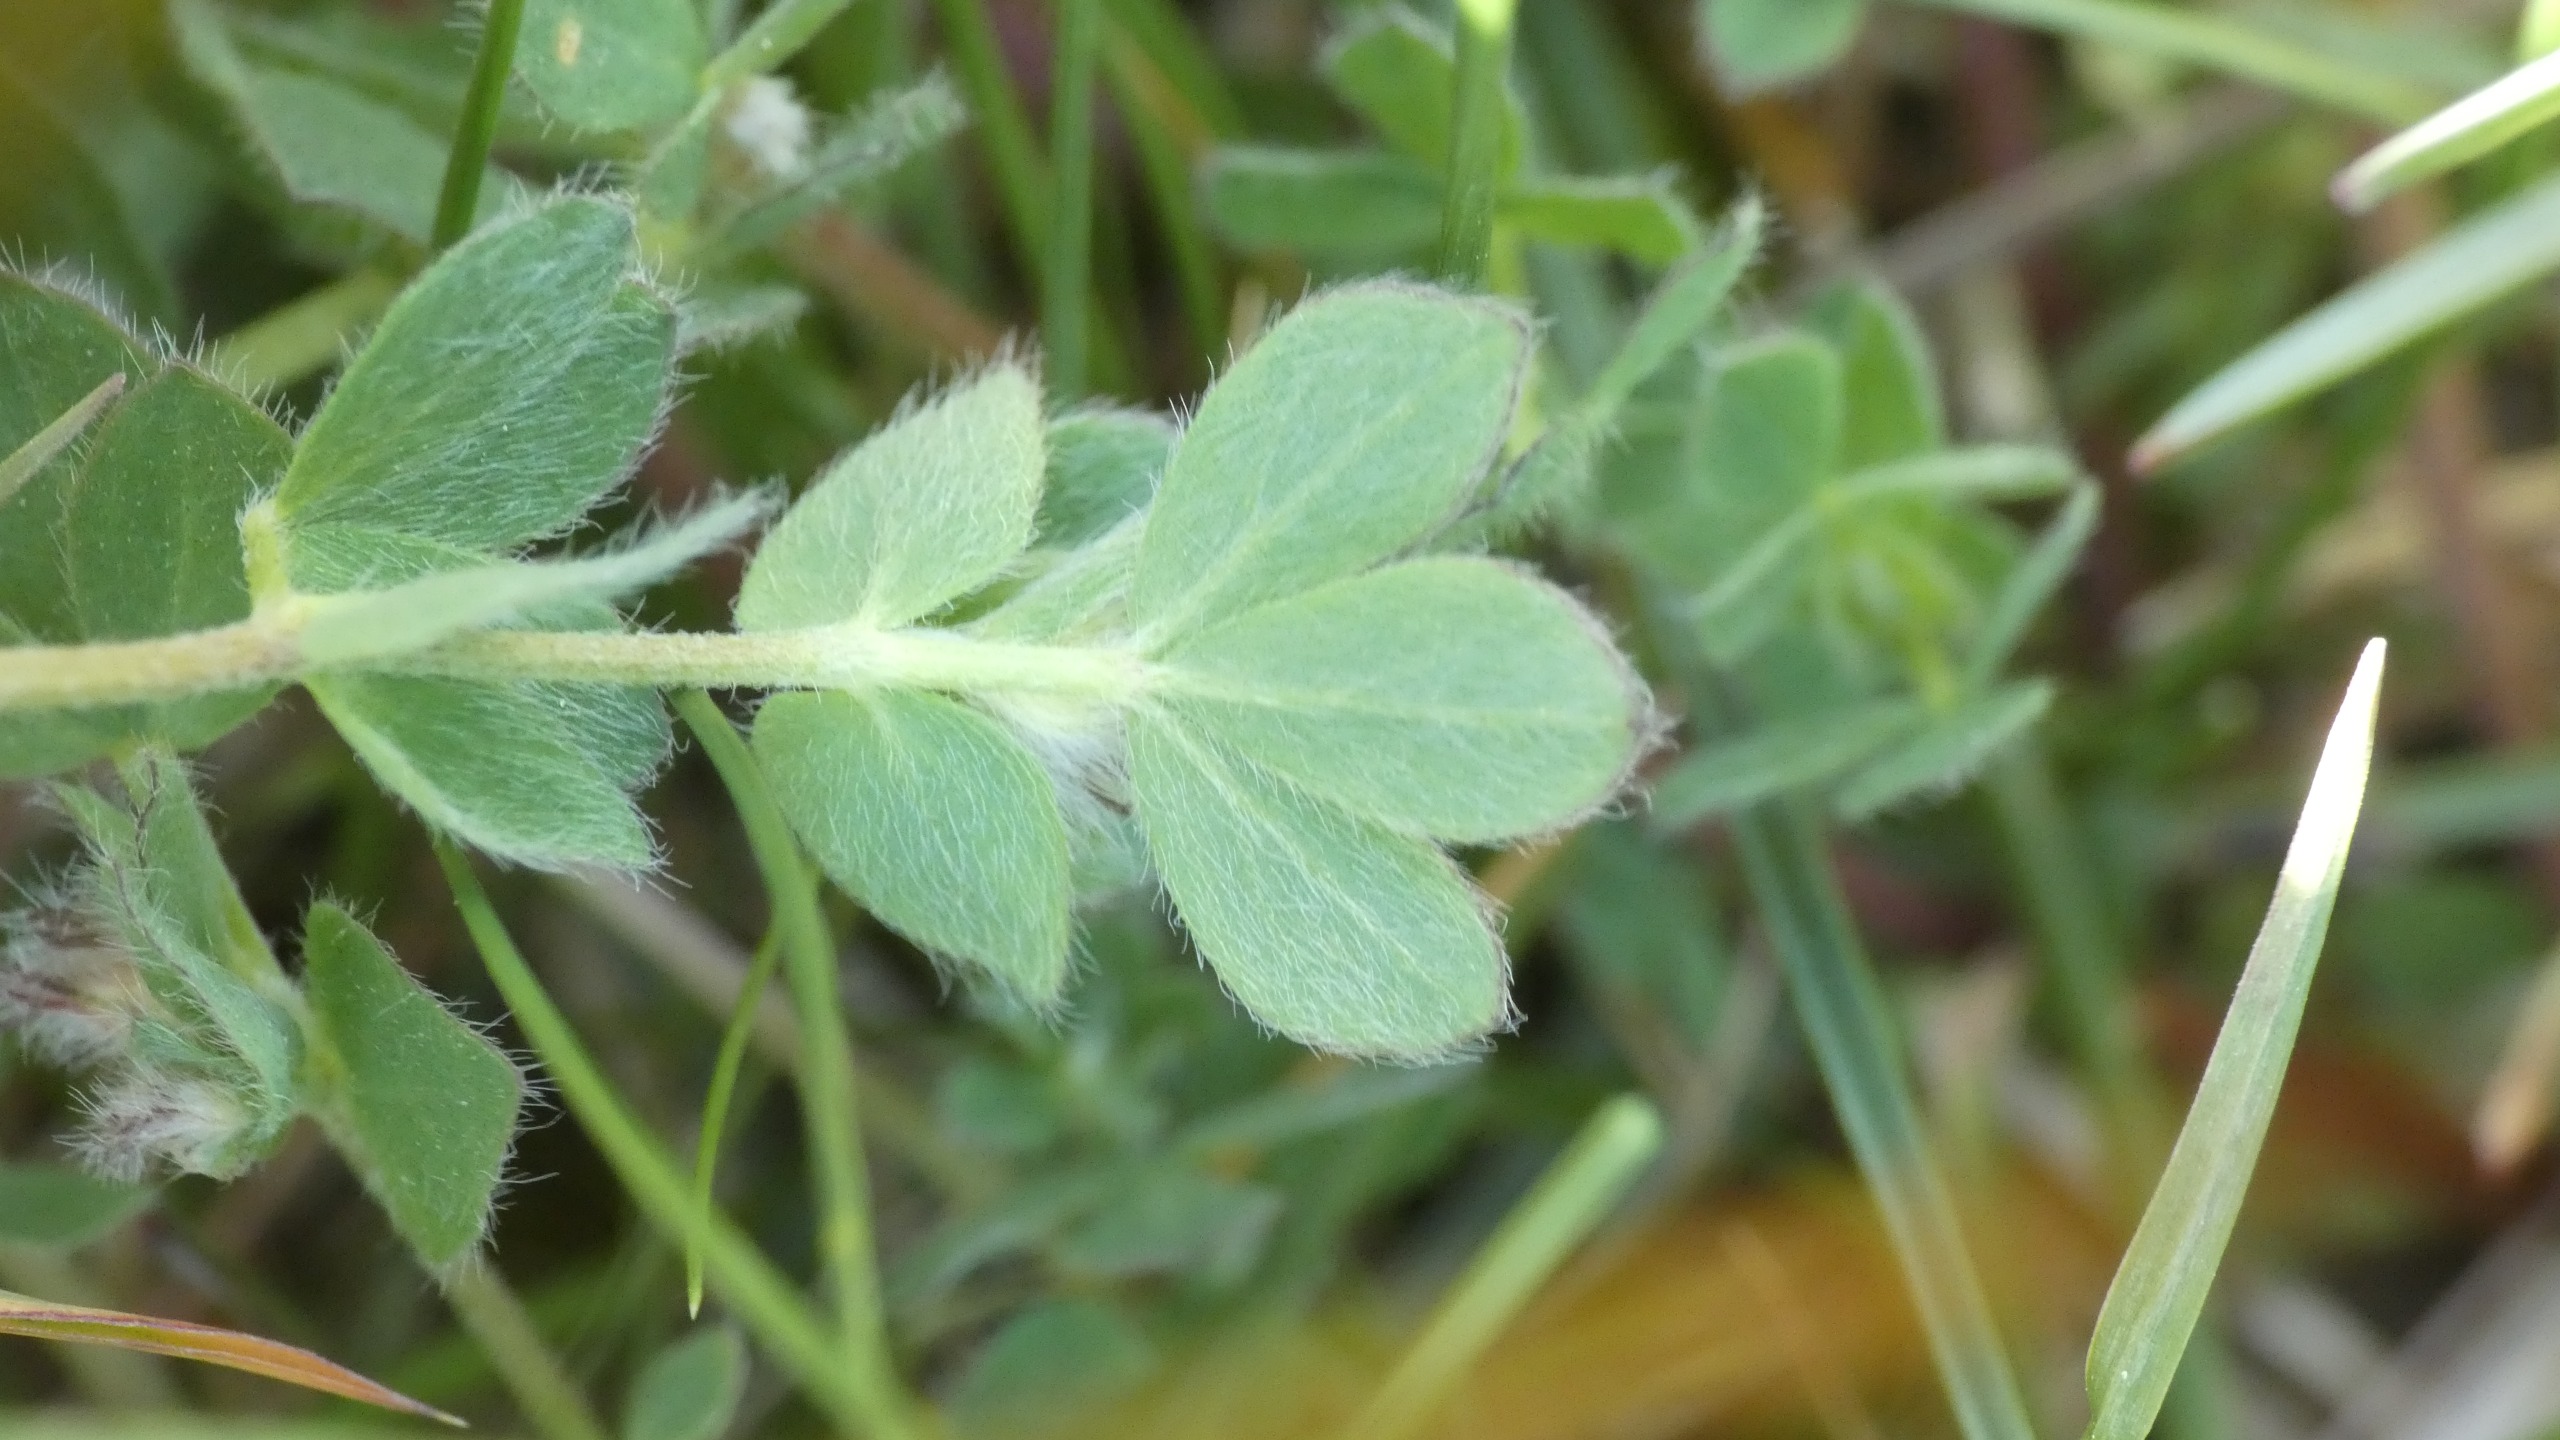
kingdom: Plantae
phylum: Tracheophyta
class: Magnoliopsida
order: Fabales
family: Fabaceae
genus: Lotus
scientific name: Lotus corniculatus
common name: Almindelig kællingetand
